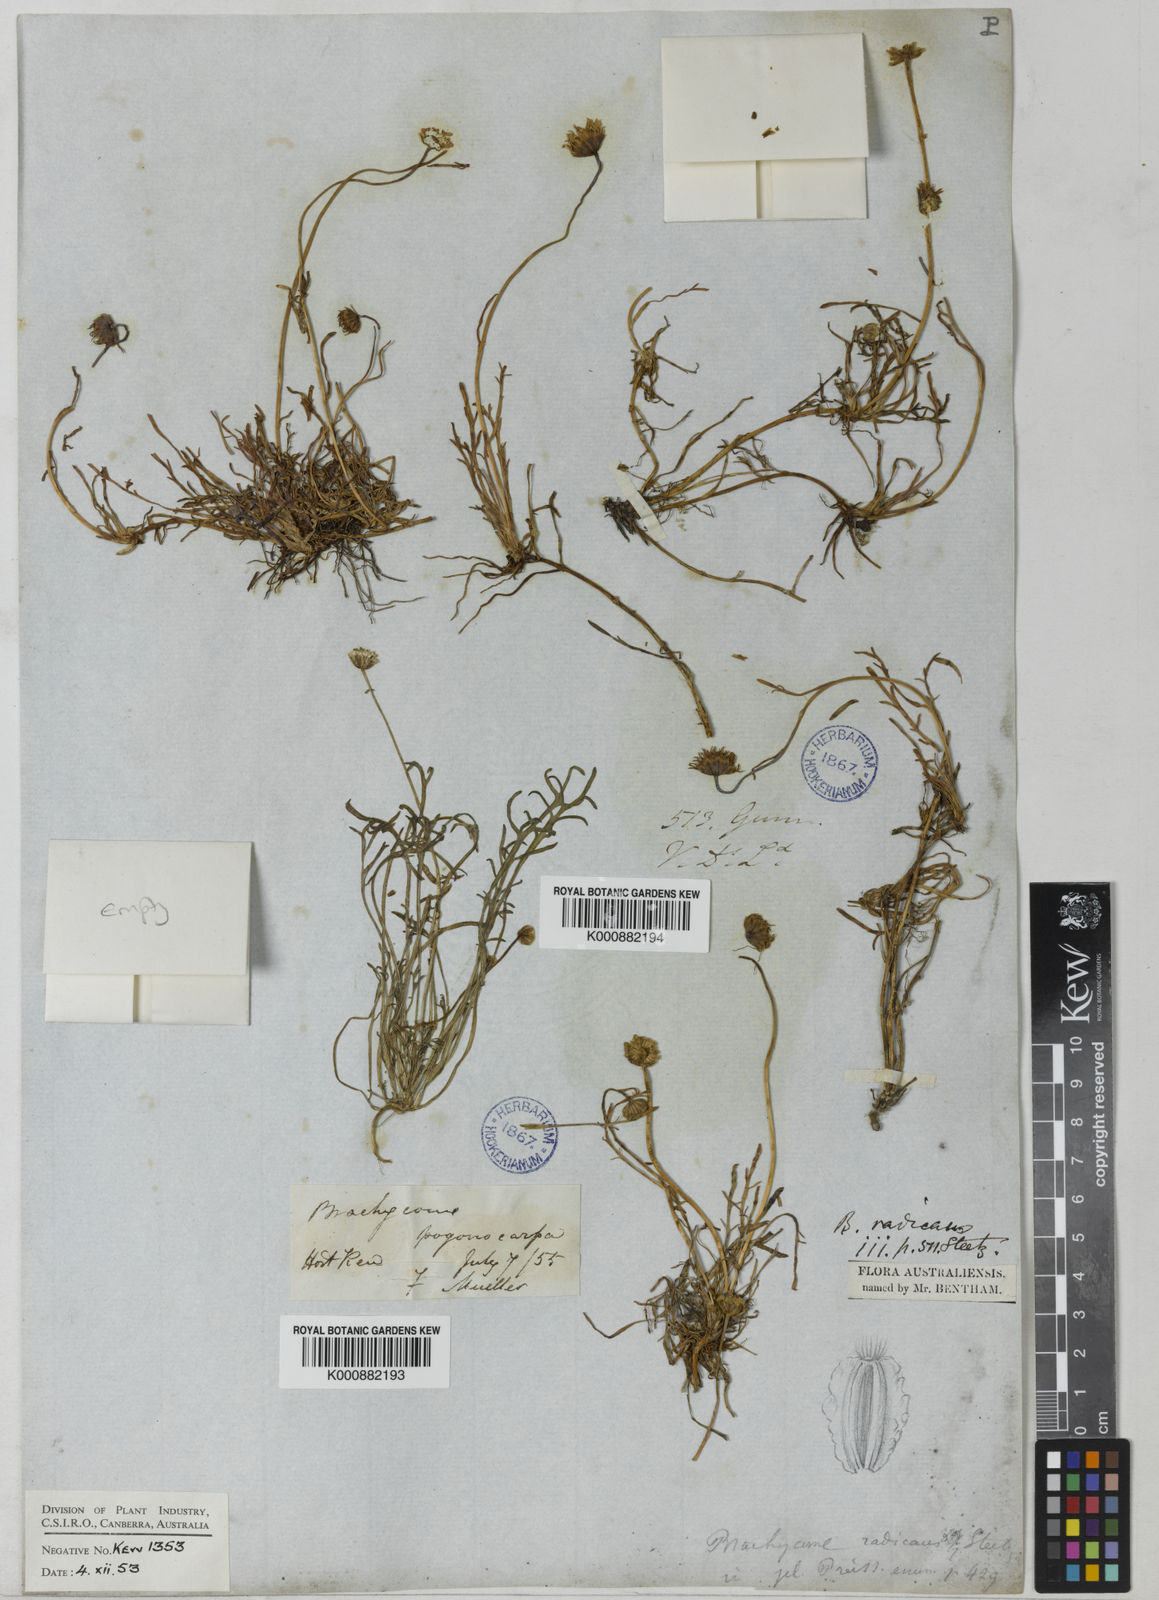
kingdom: Plantae
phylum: Tracheophyta
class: Magnoliopsida
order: Asterales
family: Asteraceae
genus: Brachyscome
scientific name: Brachyscome radicans
